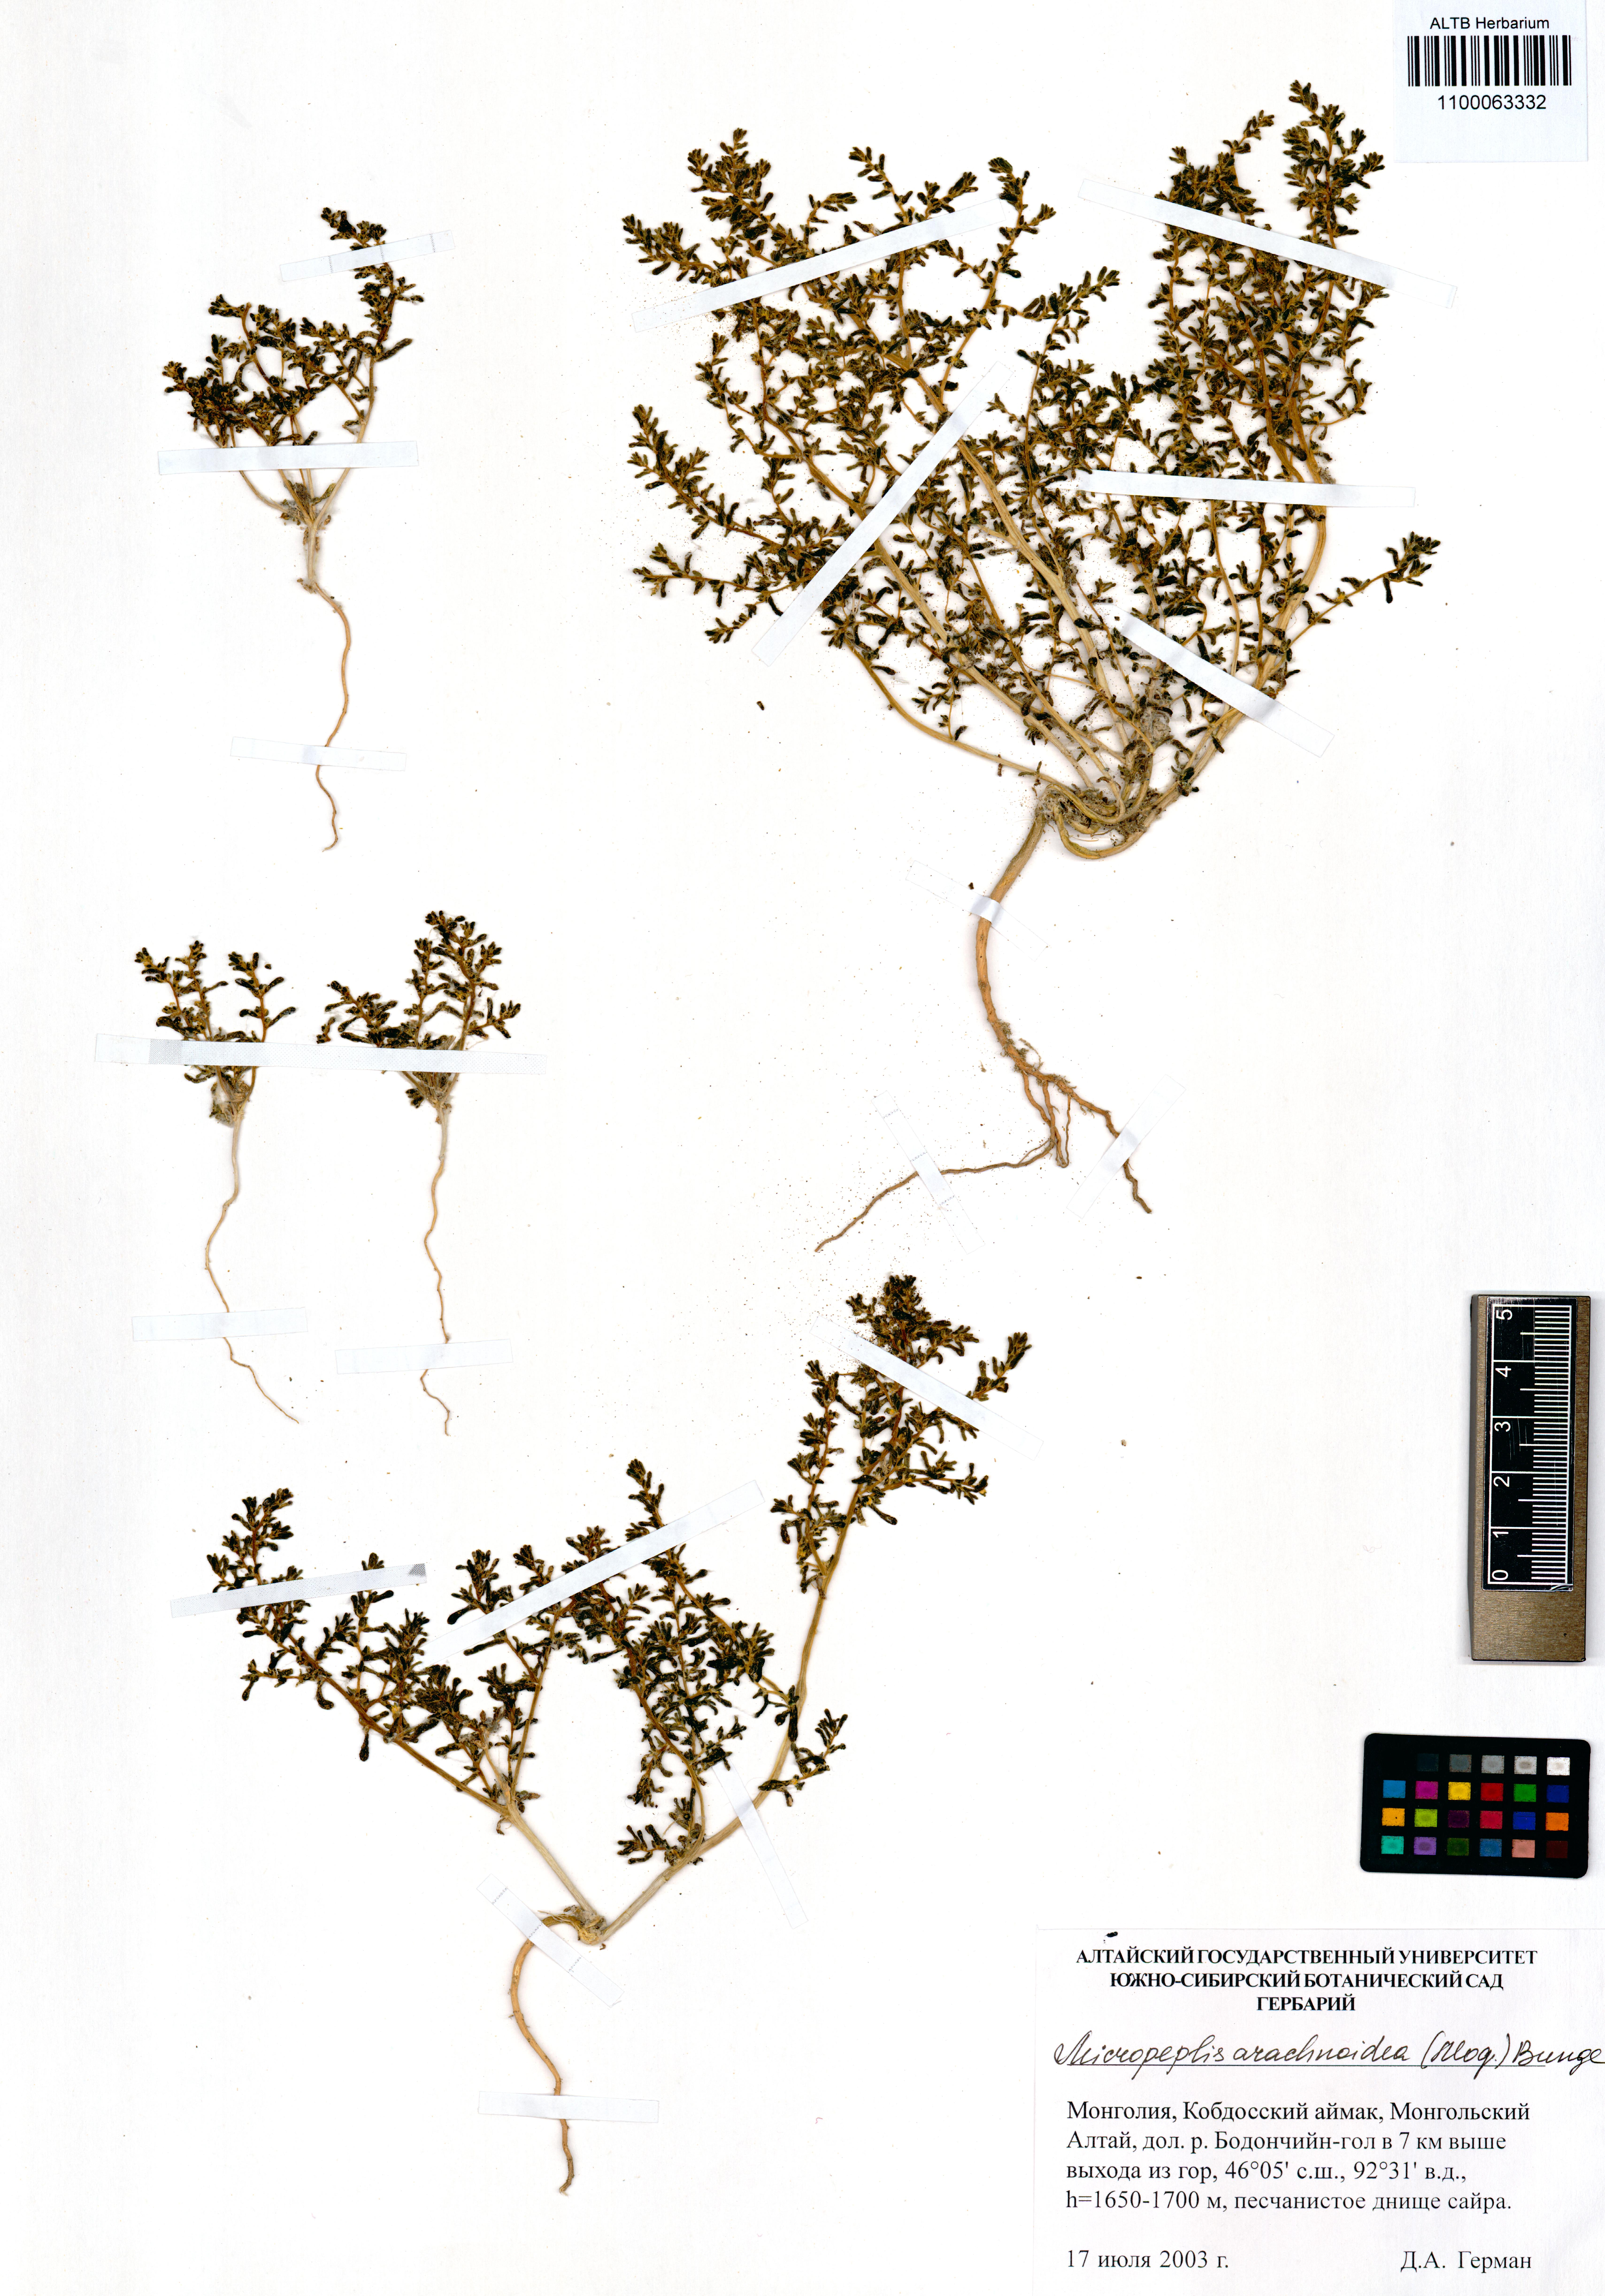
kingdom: Plantae
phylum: Tracheophyta
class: Magnoliopsida
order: Caryophyllales
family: Amaranthaceae
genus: Halogeton
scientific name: Halogeton arachnoideus
